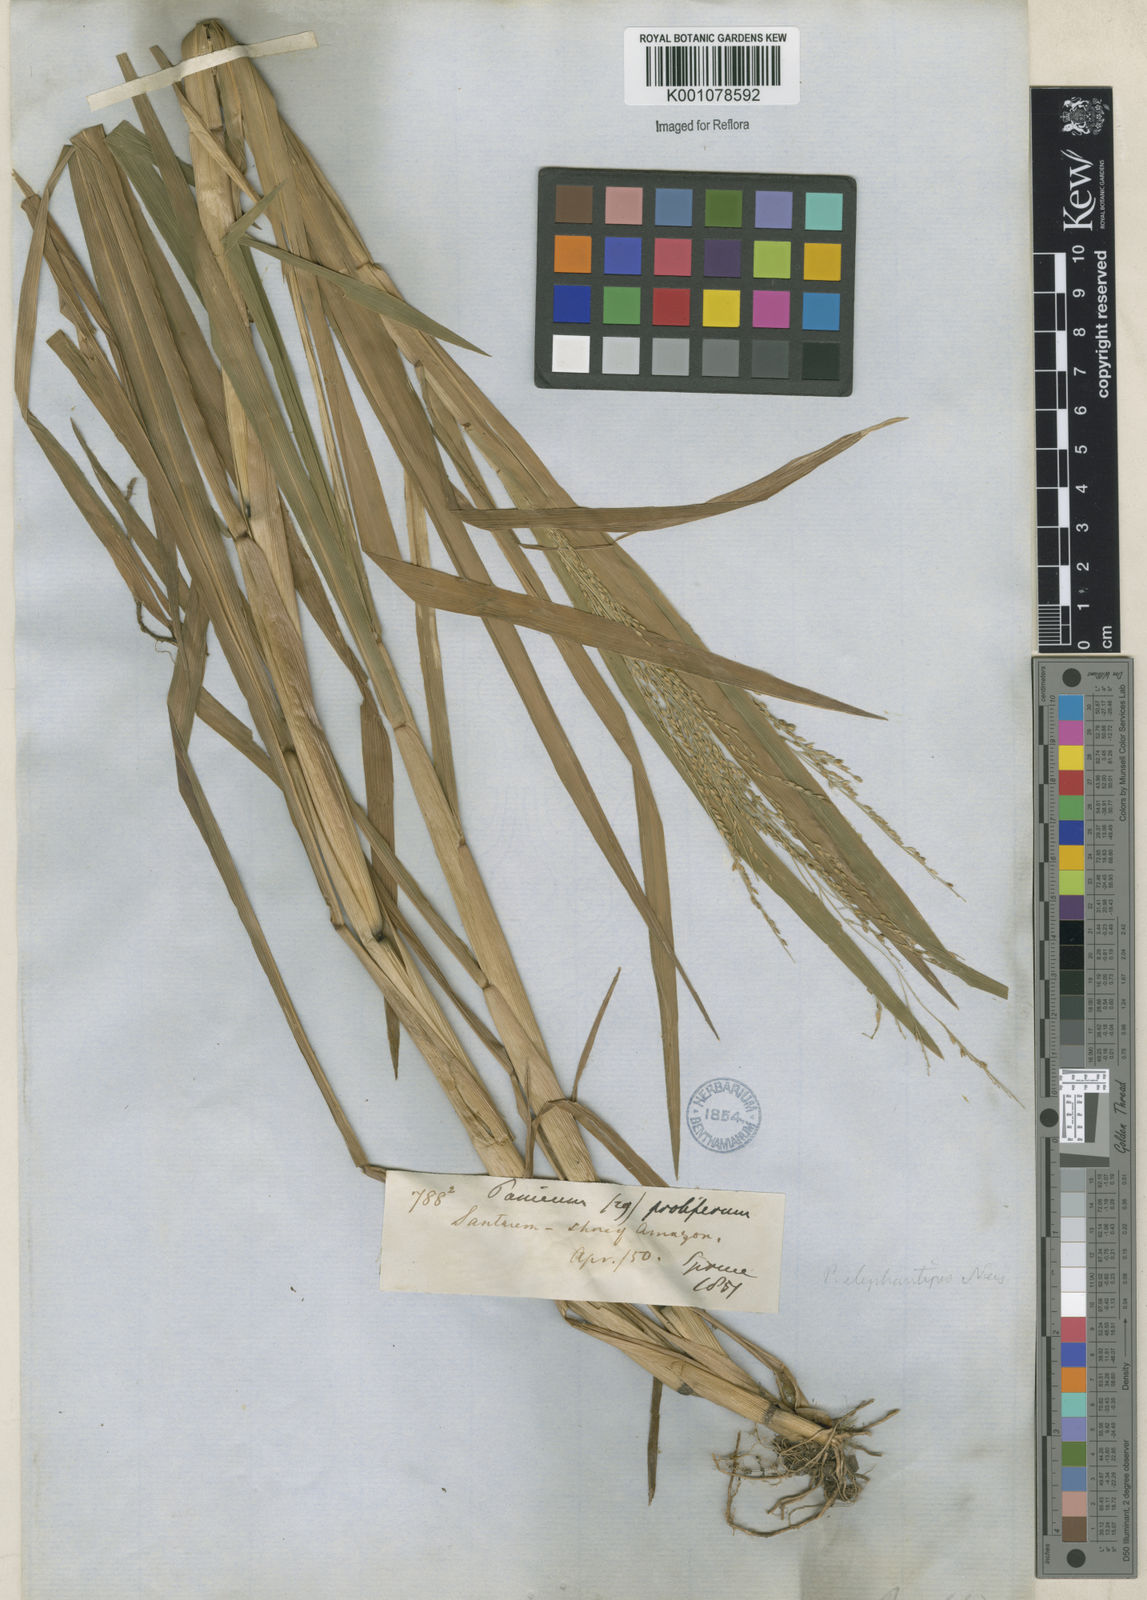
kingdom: Plantae
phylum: Tracheophyta
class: Liliopsida
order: Poales
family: Poaceae
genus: Panicum
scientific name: Panicum dichotomiflorum
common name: Autumn millet
